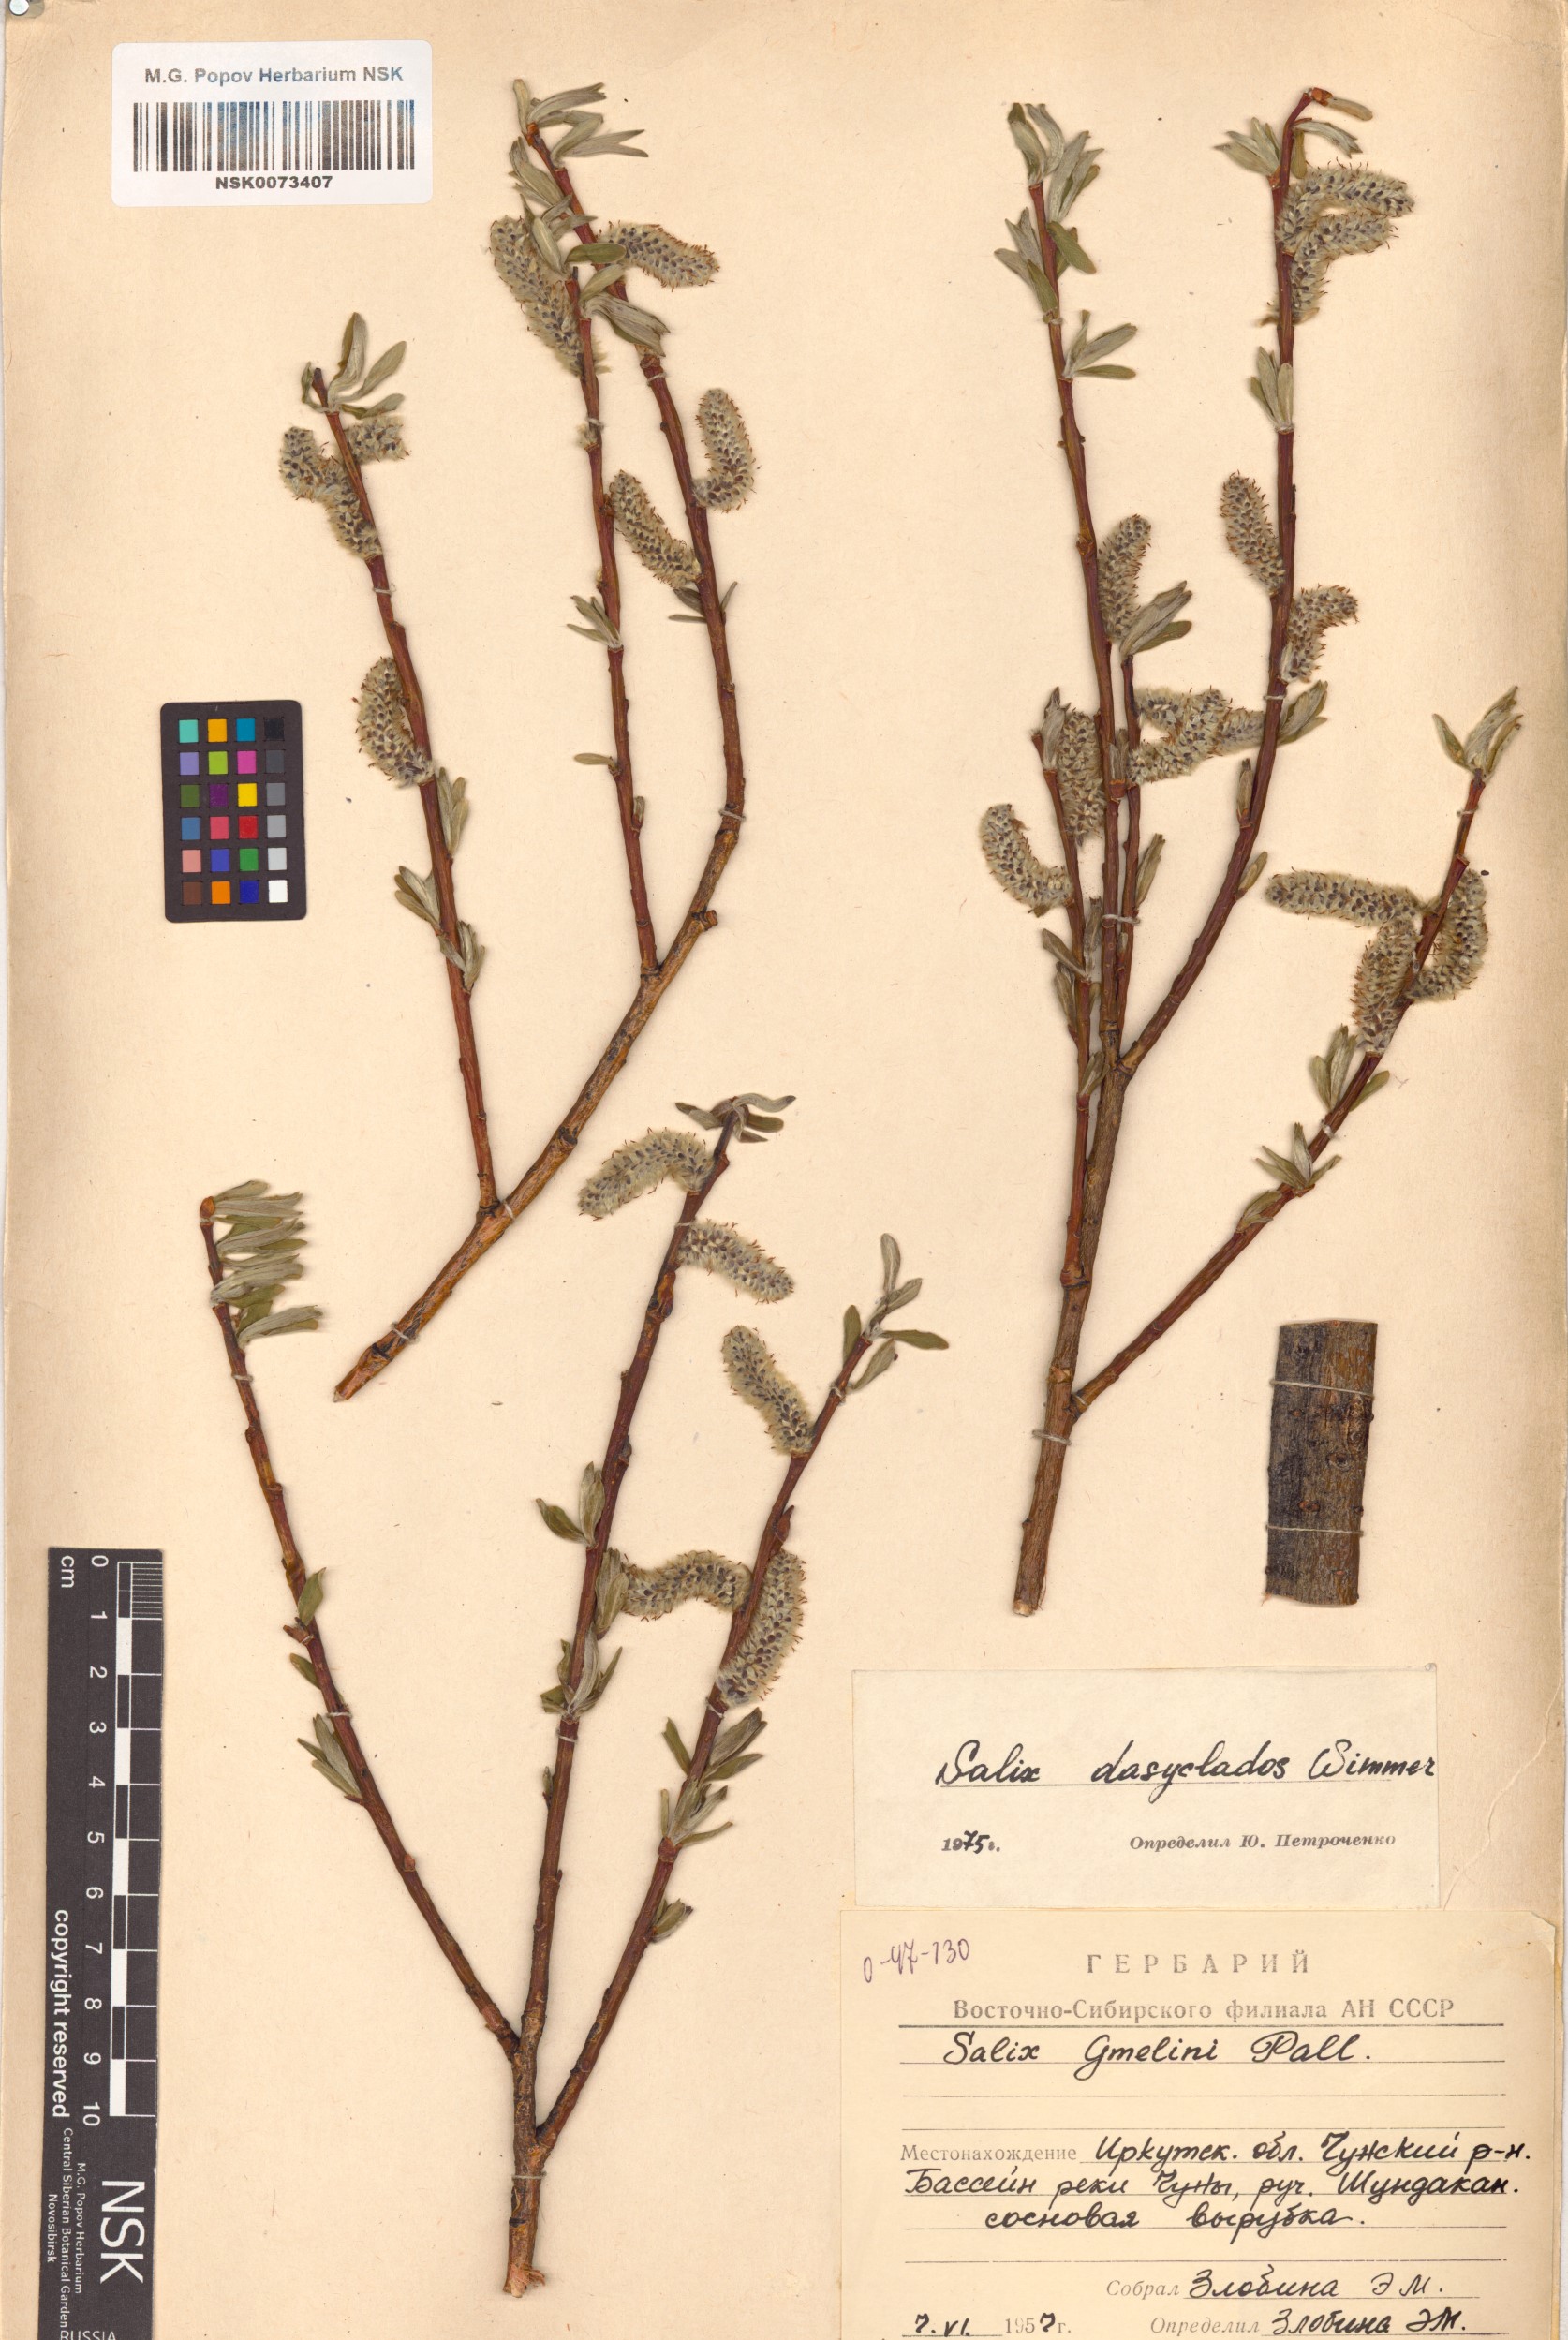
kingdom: Plantae
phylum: Tracheophyta
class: Magnoliopsida
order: Malpighiales
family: Salicaceae
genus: Salix
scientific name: Salix gmelinii
